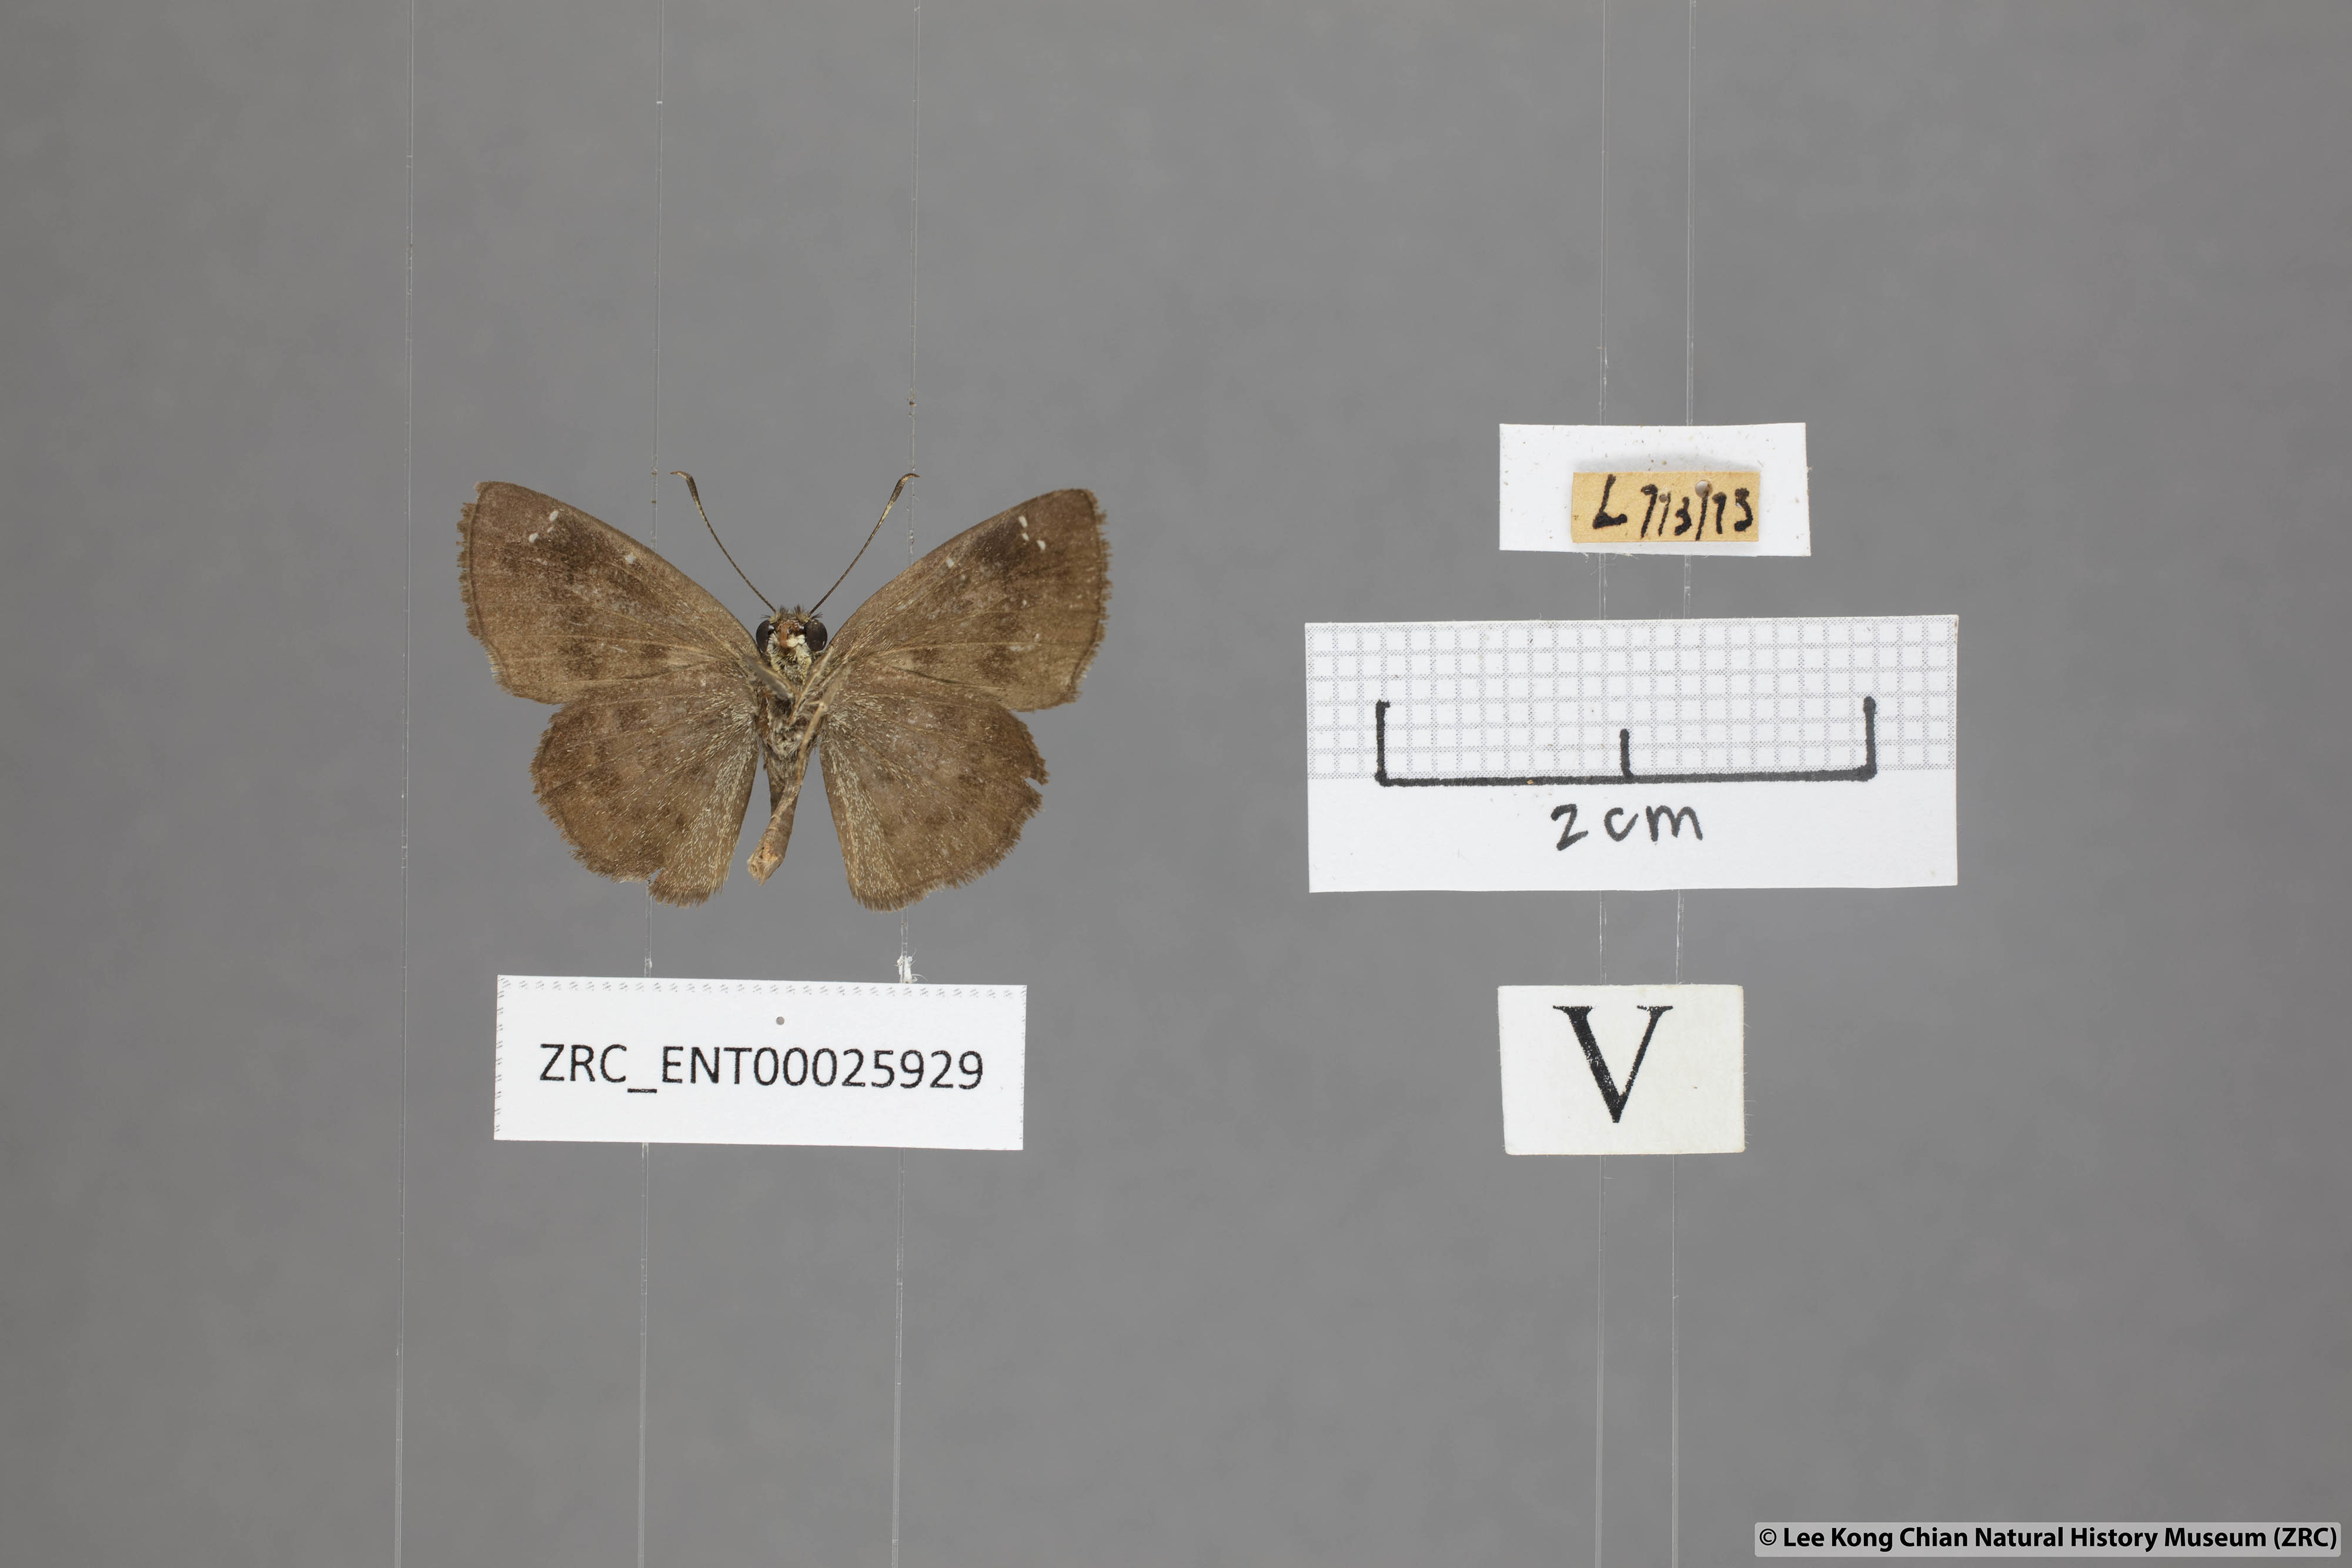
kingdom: Animalia
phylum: Arthropoda
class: Insecta
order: Lepidoptera
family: Hesperiidae
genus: Sarangesa
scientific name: Sarangesa dasahara
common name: Common small flat
